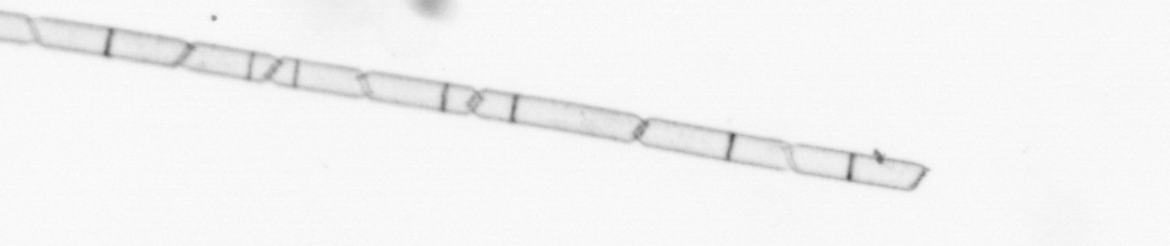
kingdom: Chromista
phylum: Ochrophyta
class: Bacillariophyceae
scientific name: Bacillariophyceae
